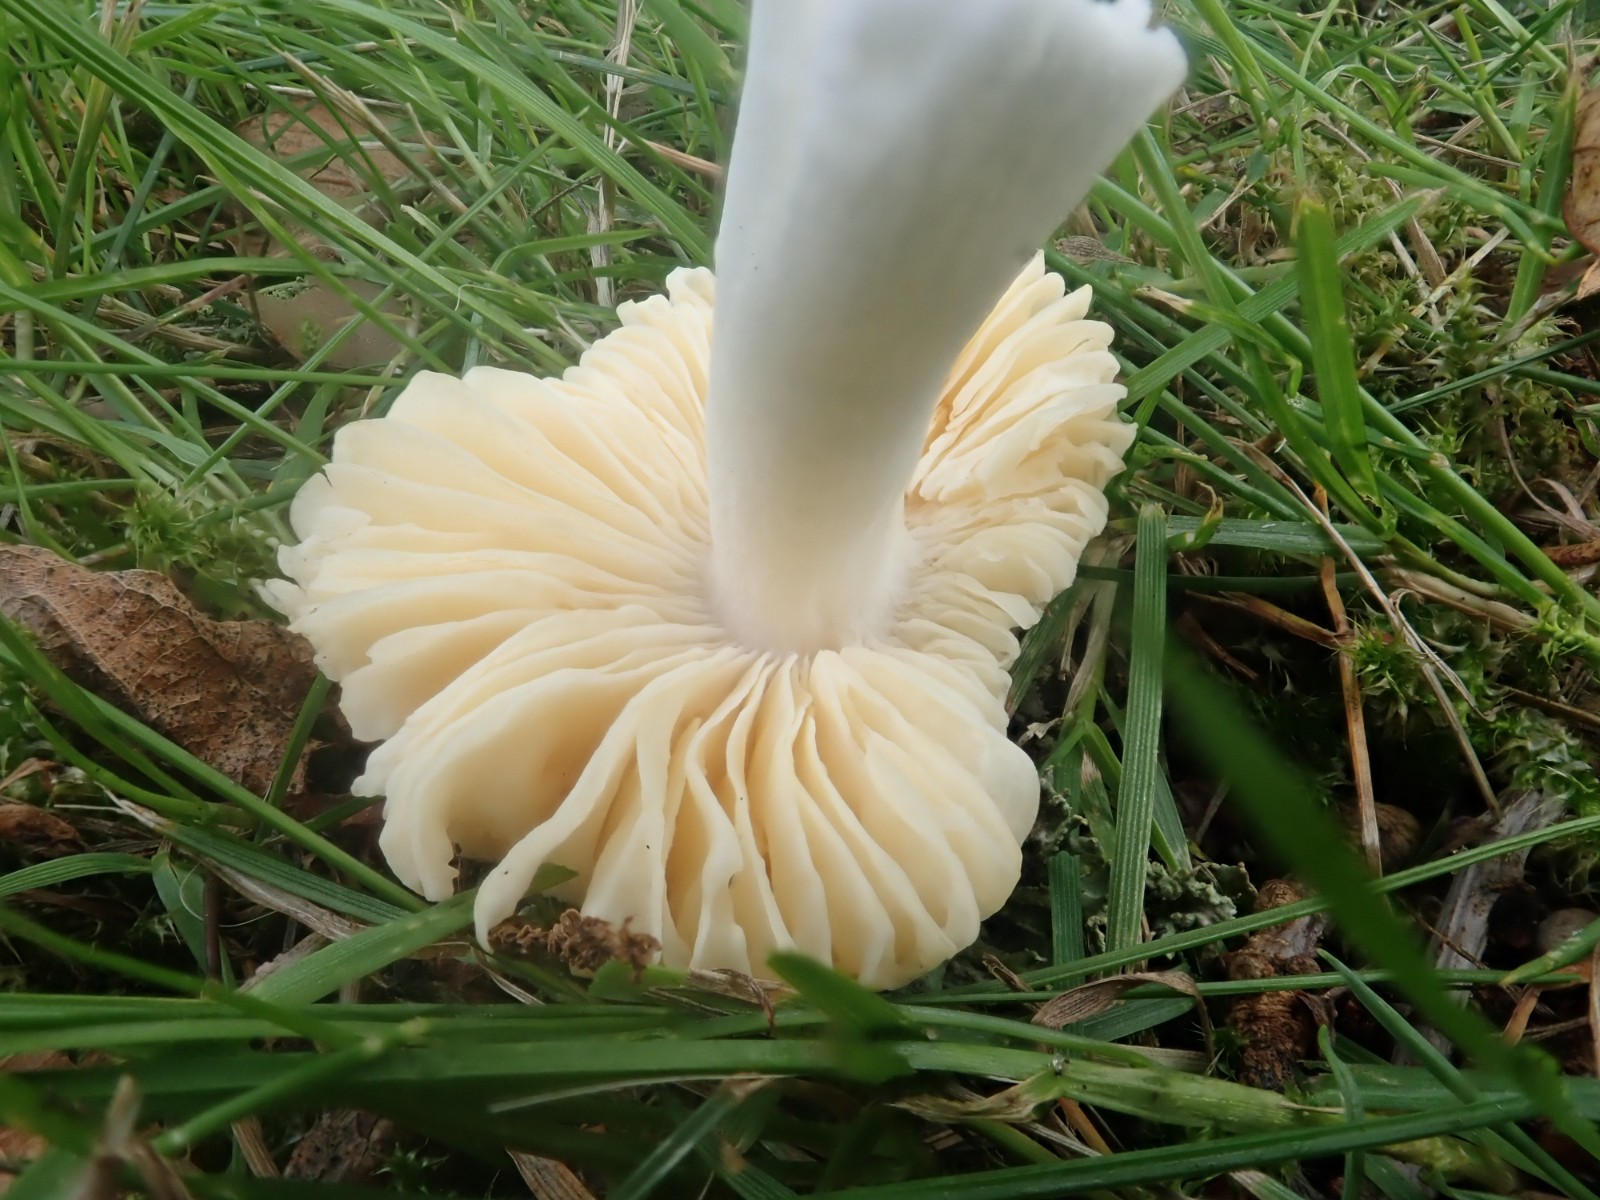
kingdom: Fungi
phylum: Basidiomycota
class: Agaricomycetes
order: Russulales
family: Russulaceae
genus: Russula
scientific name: Russula odorata
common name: duft-skørhat
